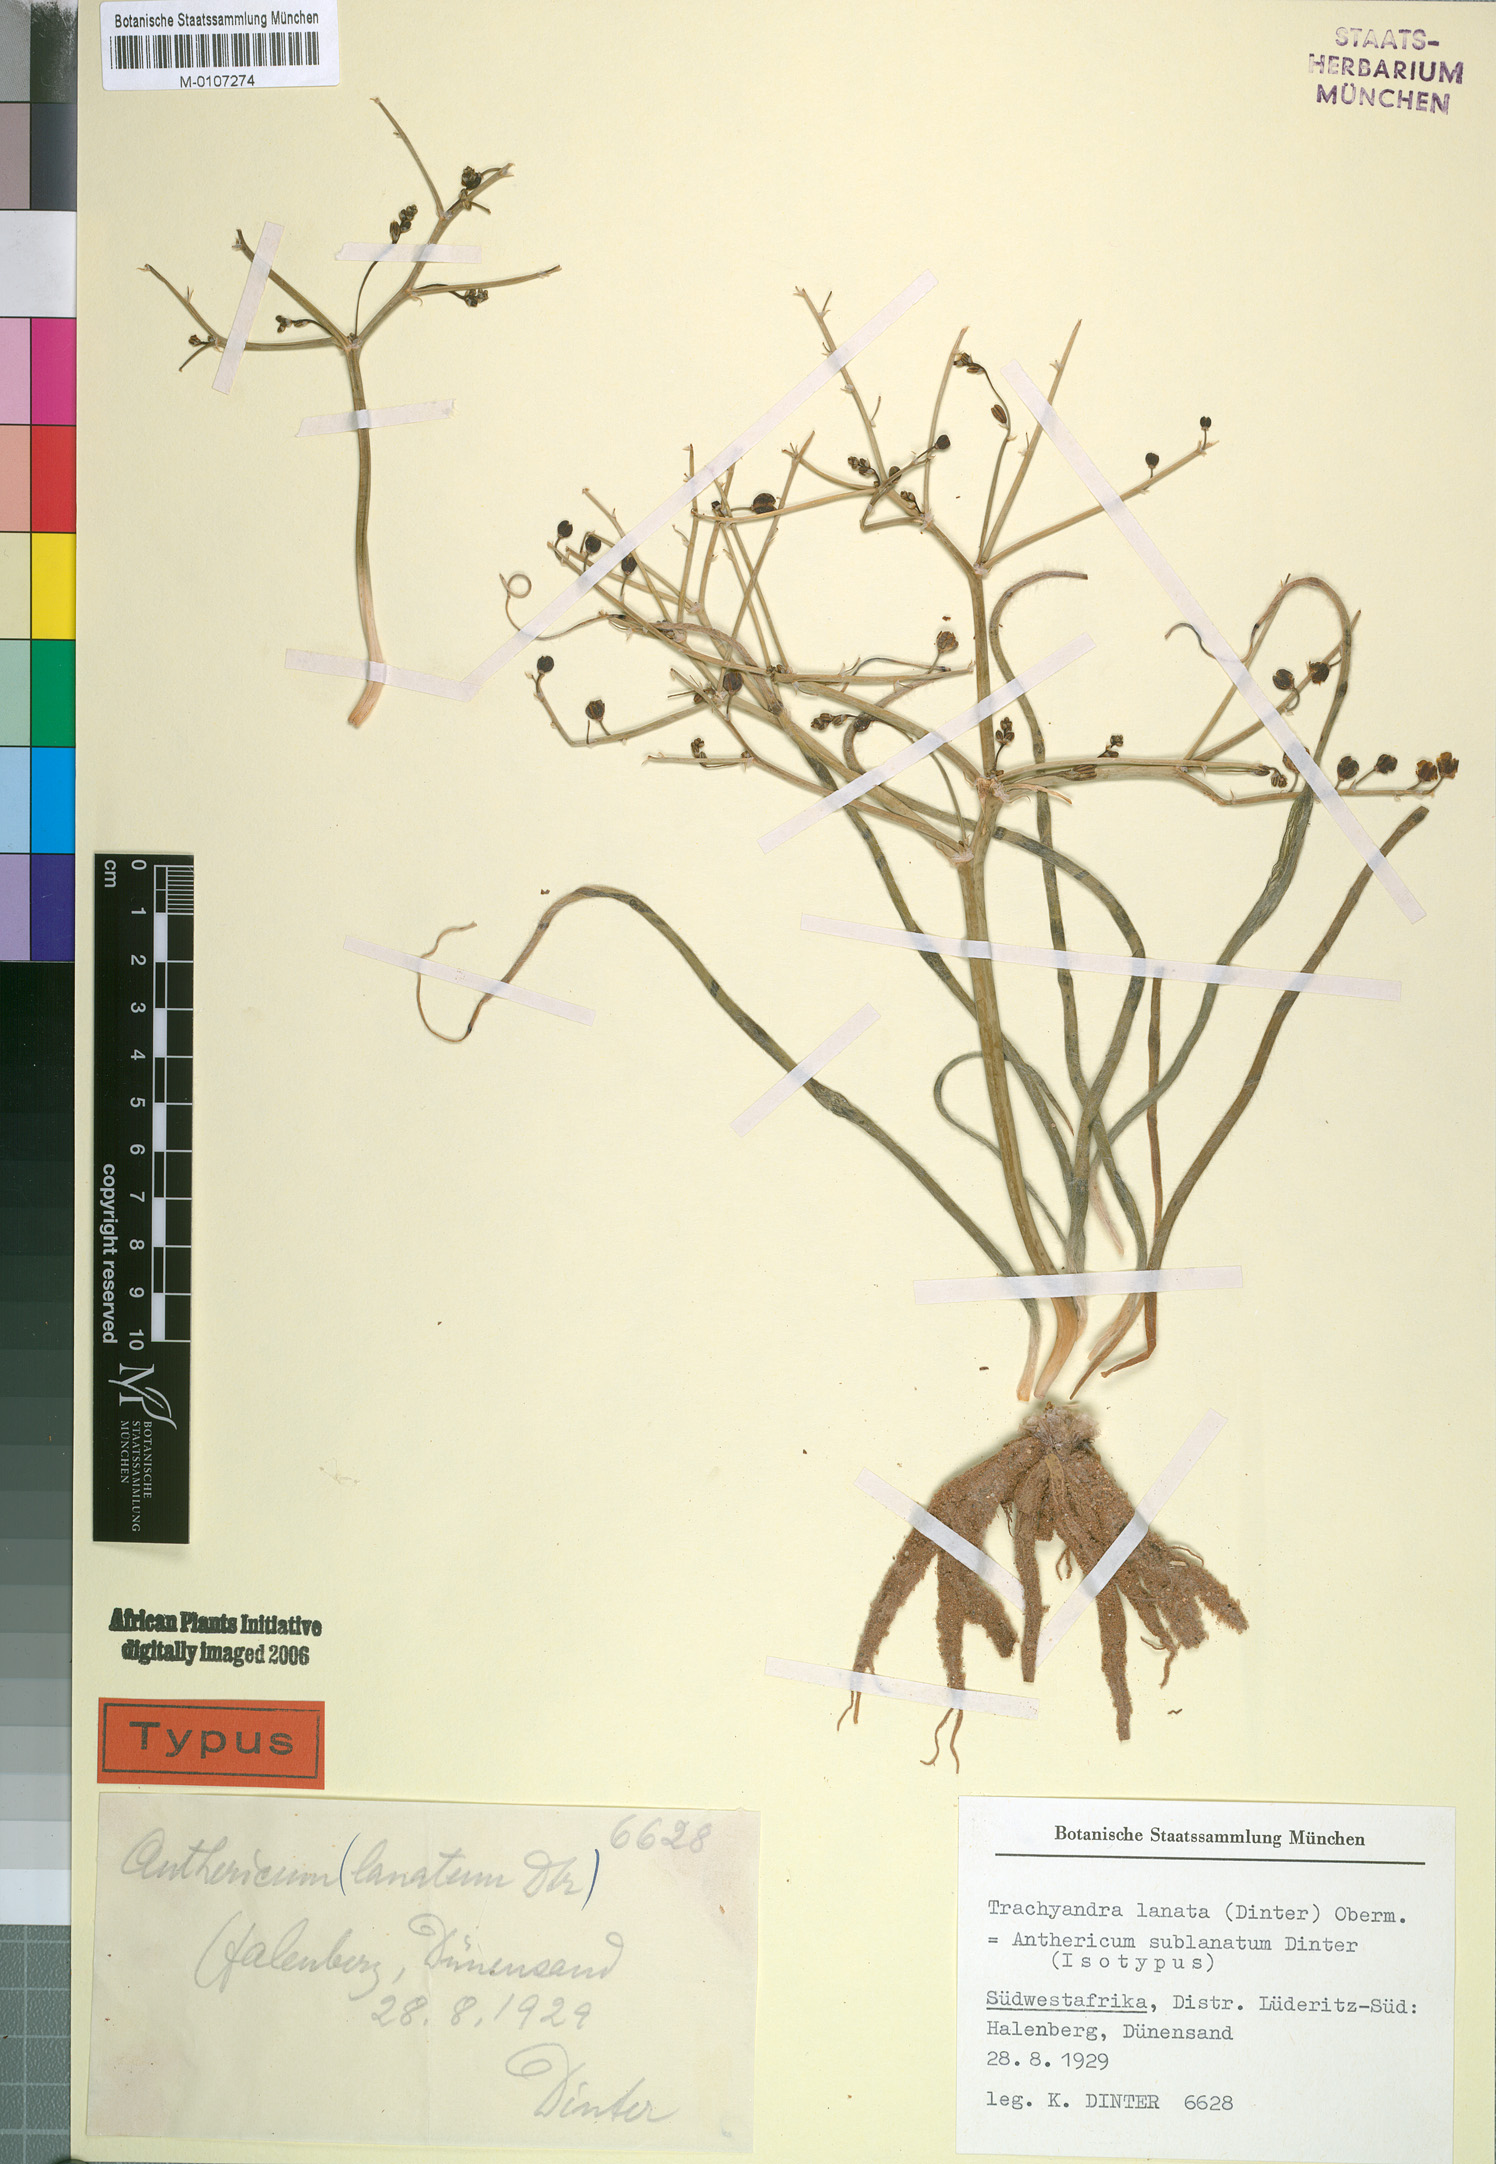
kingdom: Plantae
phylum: Tracheophyta
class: Liliopsida
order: Asparagales
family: Asphodelaceae
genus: Trachyandra
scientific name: Trachyandra lanata
